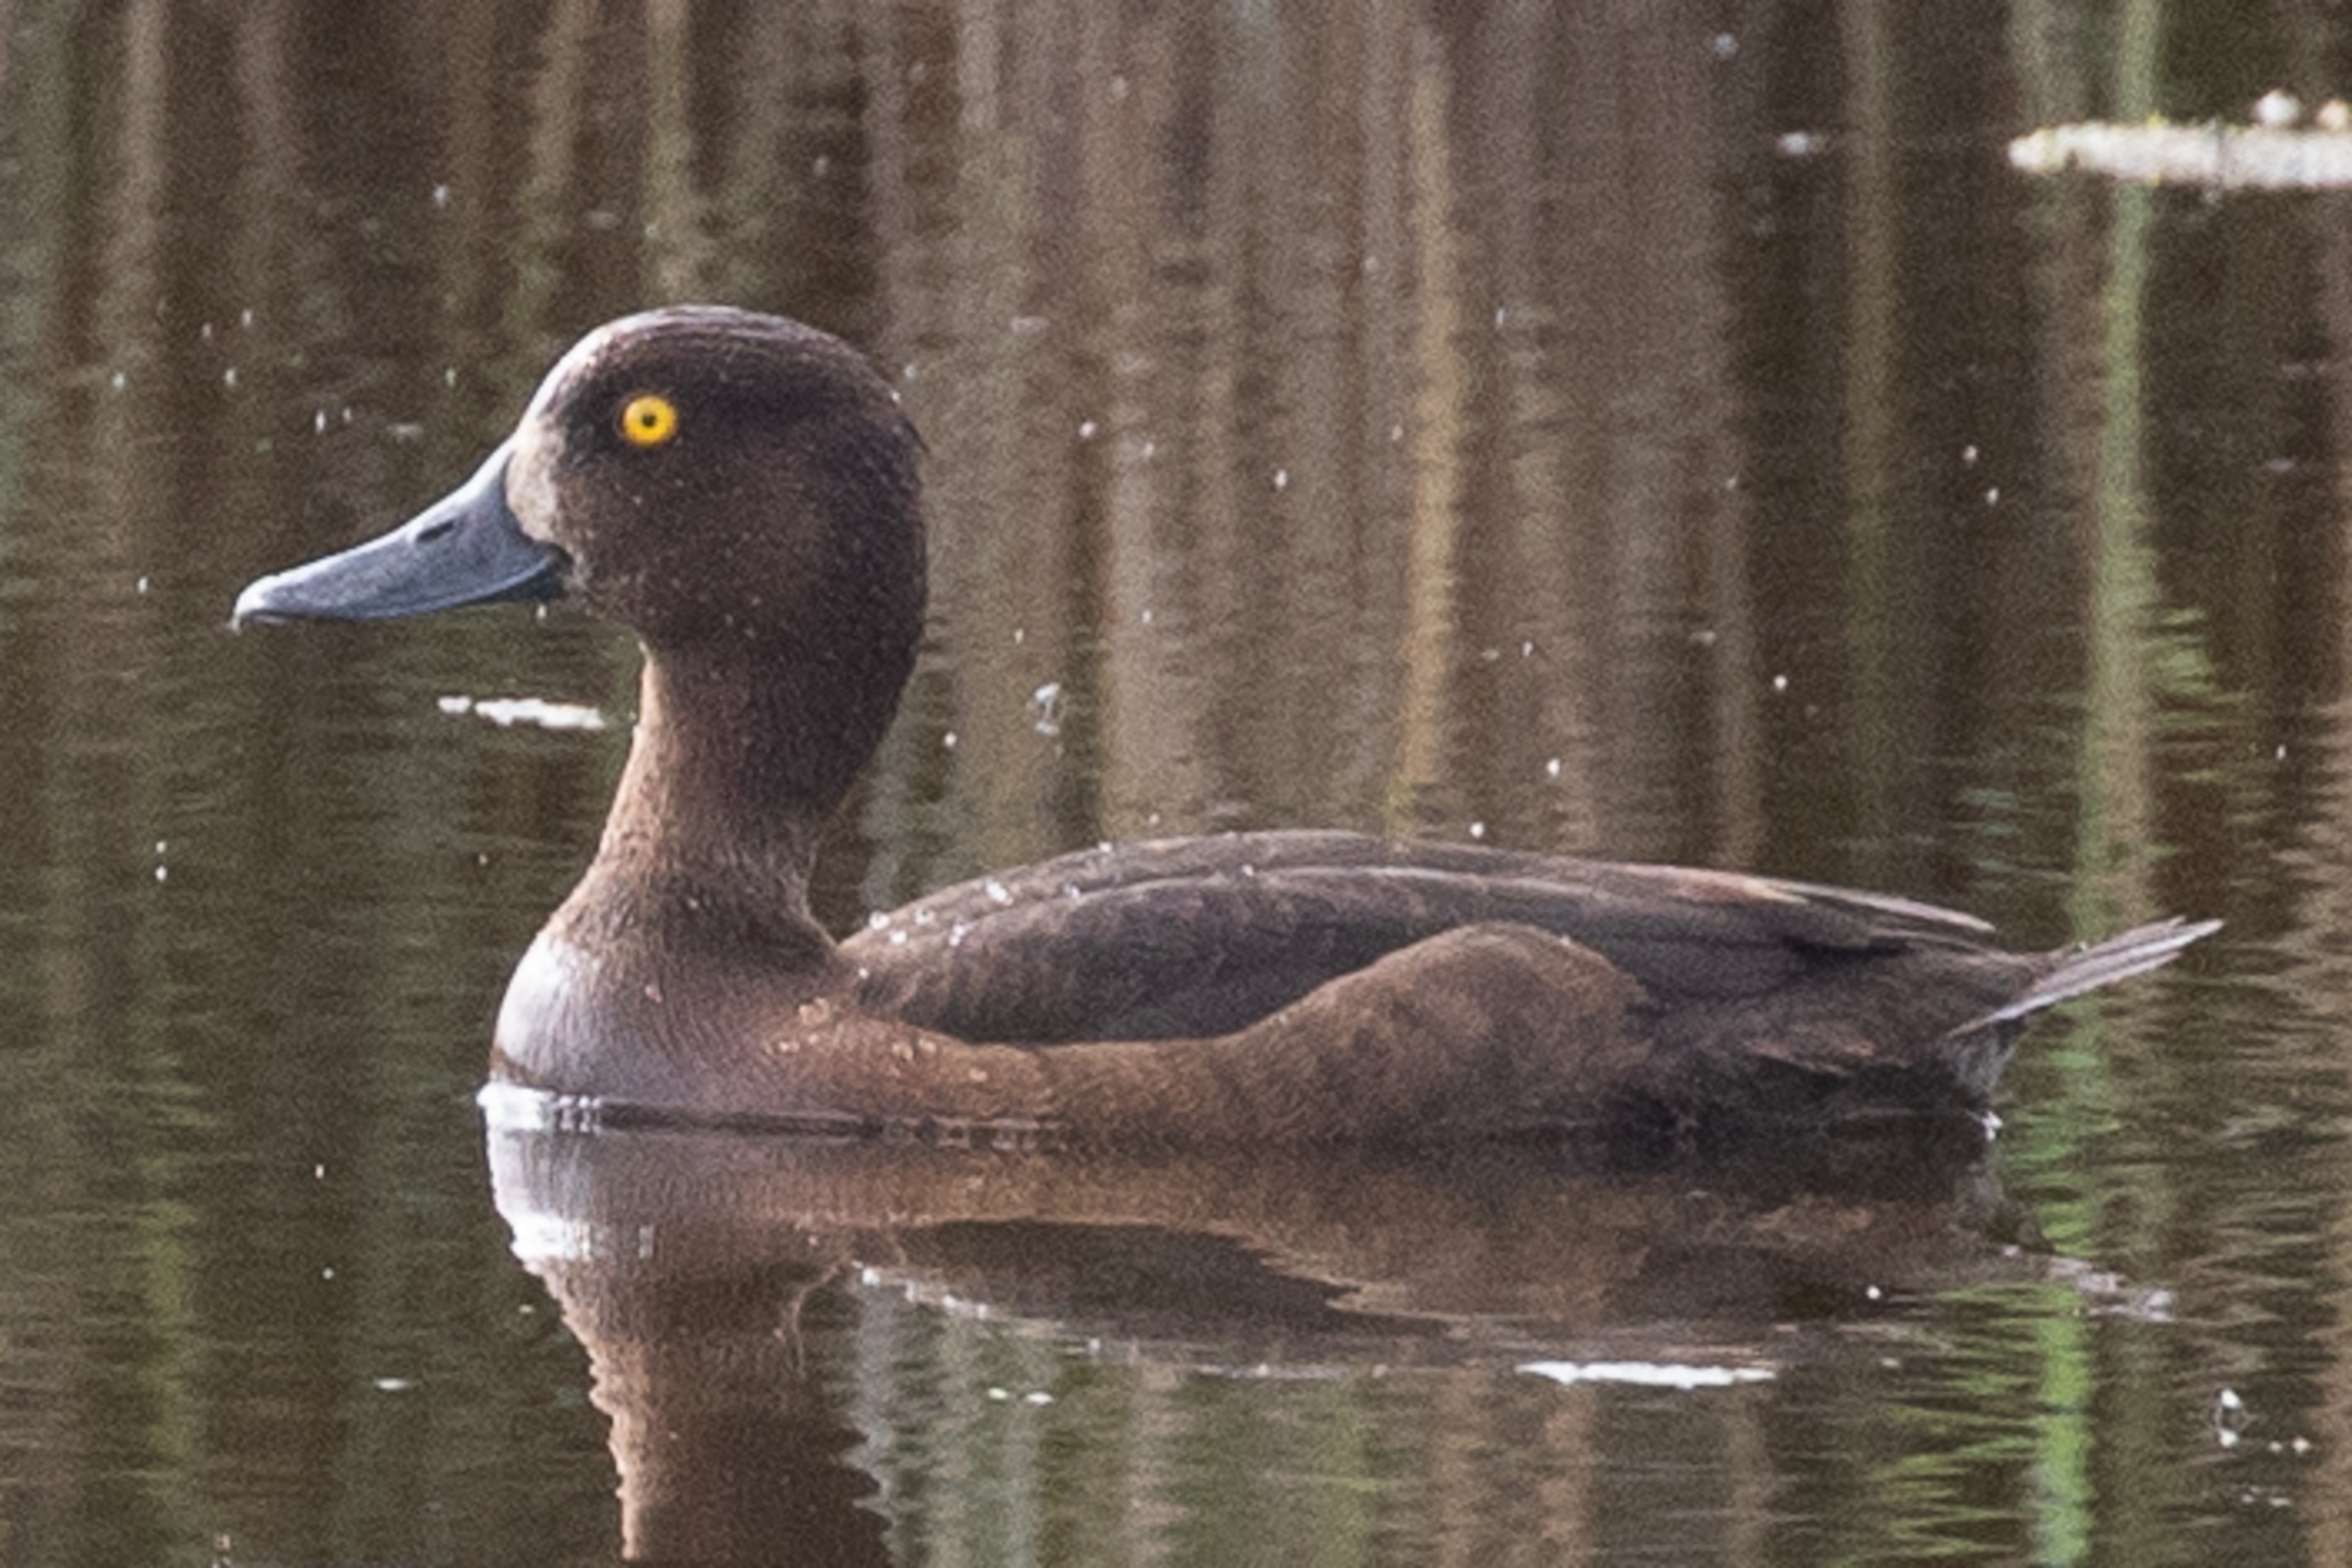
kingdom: Animalia
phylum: Chordata
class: Aves
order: Anseriformes
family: Anatidae
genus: Aythya
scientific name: Aythya fuligula
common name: Troldand
